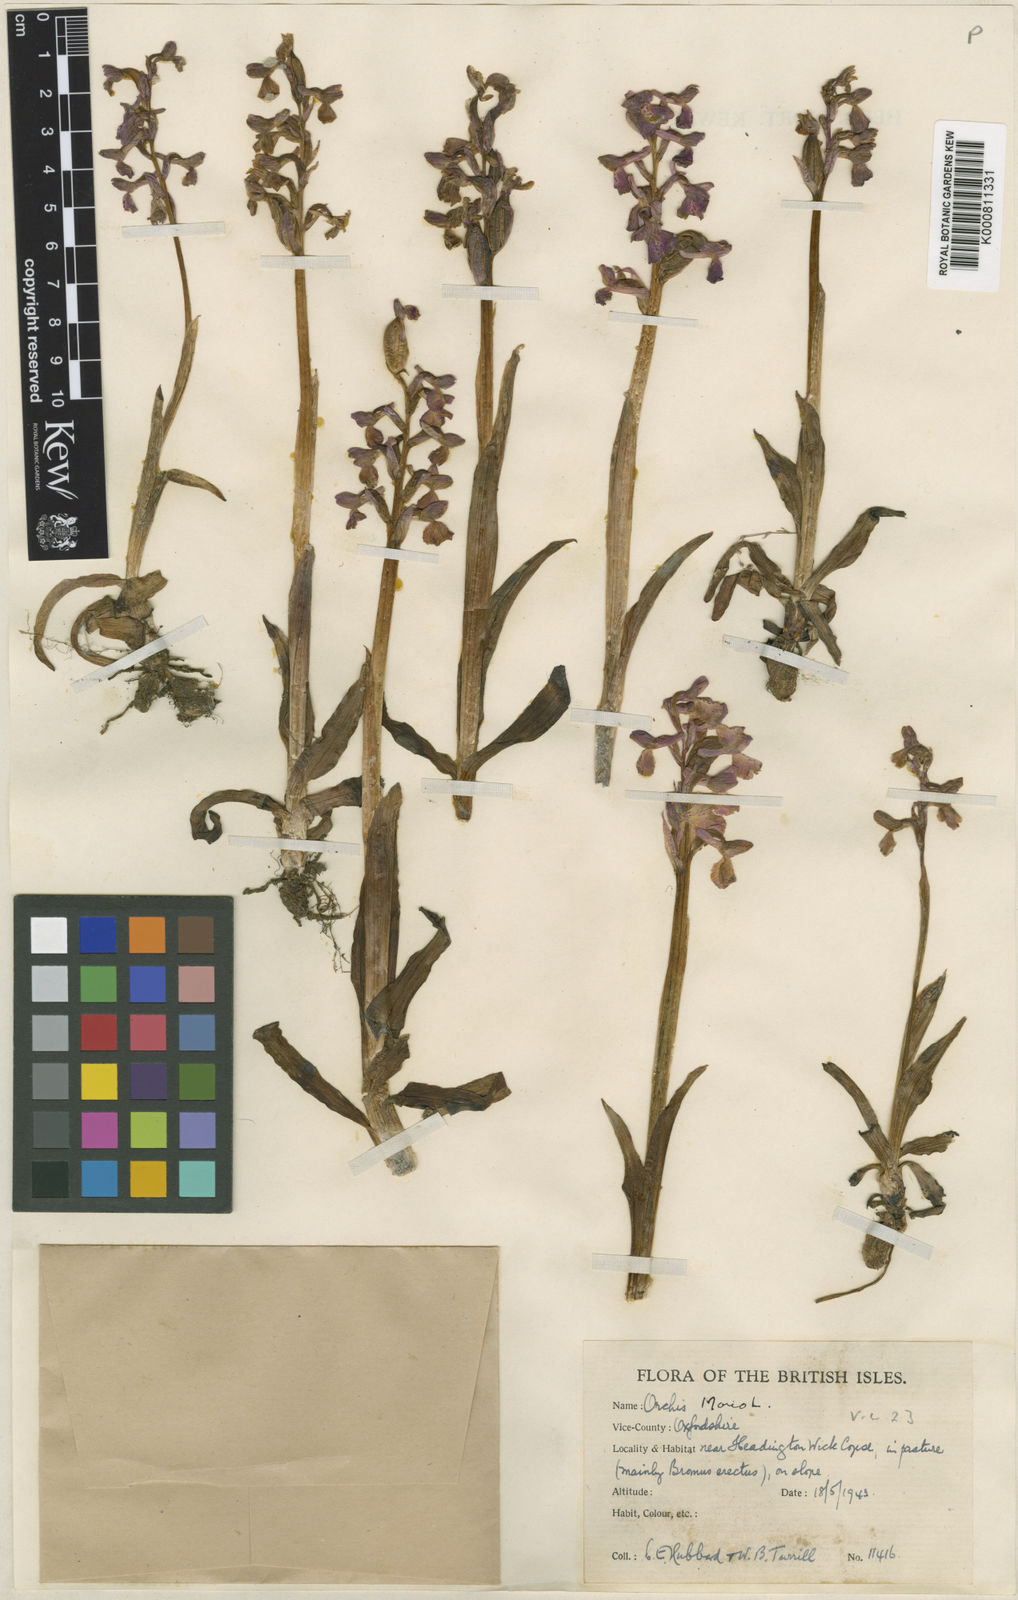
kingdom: Plantae
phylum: Tracheophyta
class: Liliopsida
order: Asparagales
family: Orchidaceae
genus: Anacamptis
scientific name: Anacamptis morio
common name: Green-winged orchid
